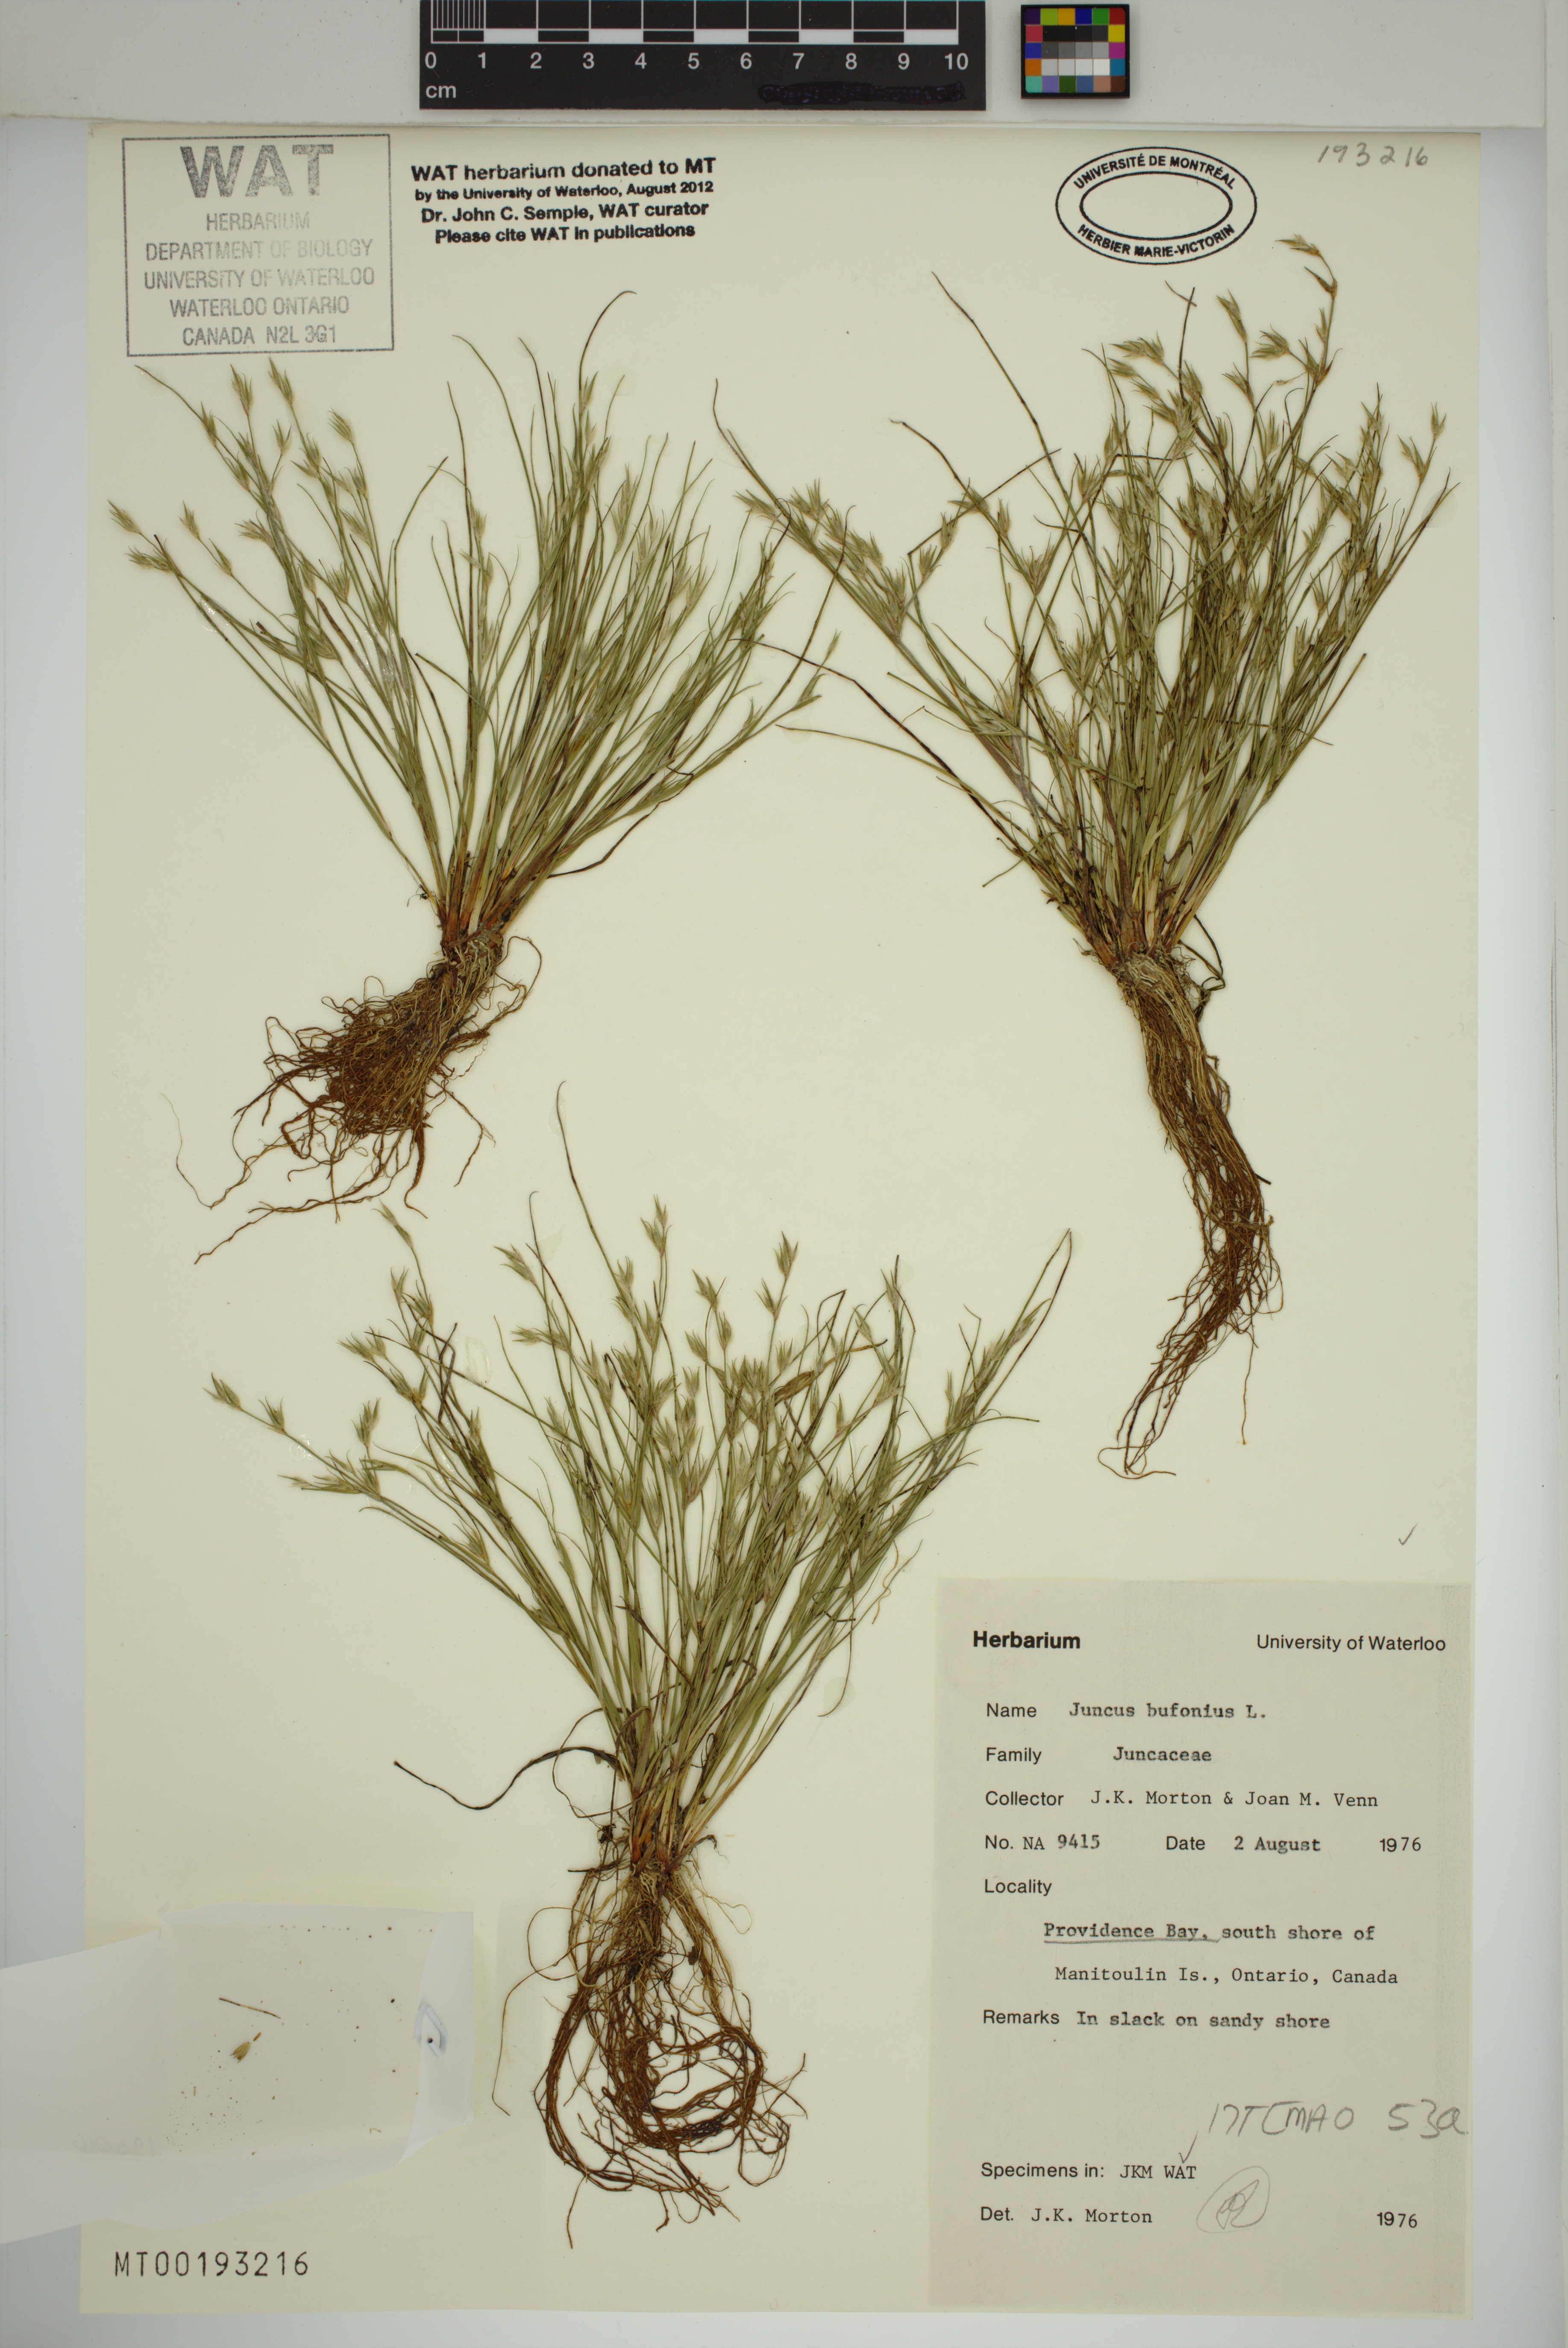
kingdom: Plantae
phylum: Tracheophyta
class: Liliopsida
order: Poales
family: Juncaceae
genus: Juncus
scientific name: Juncus bufonius
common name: Toad rush
